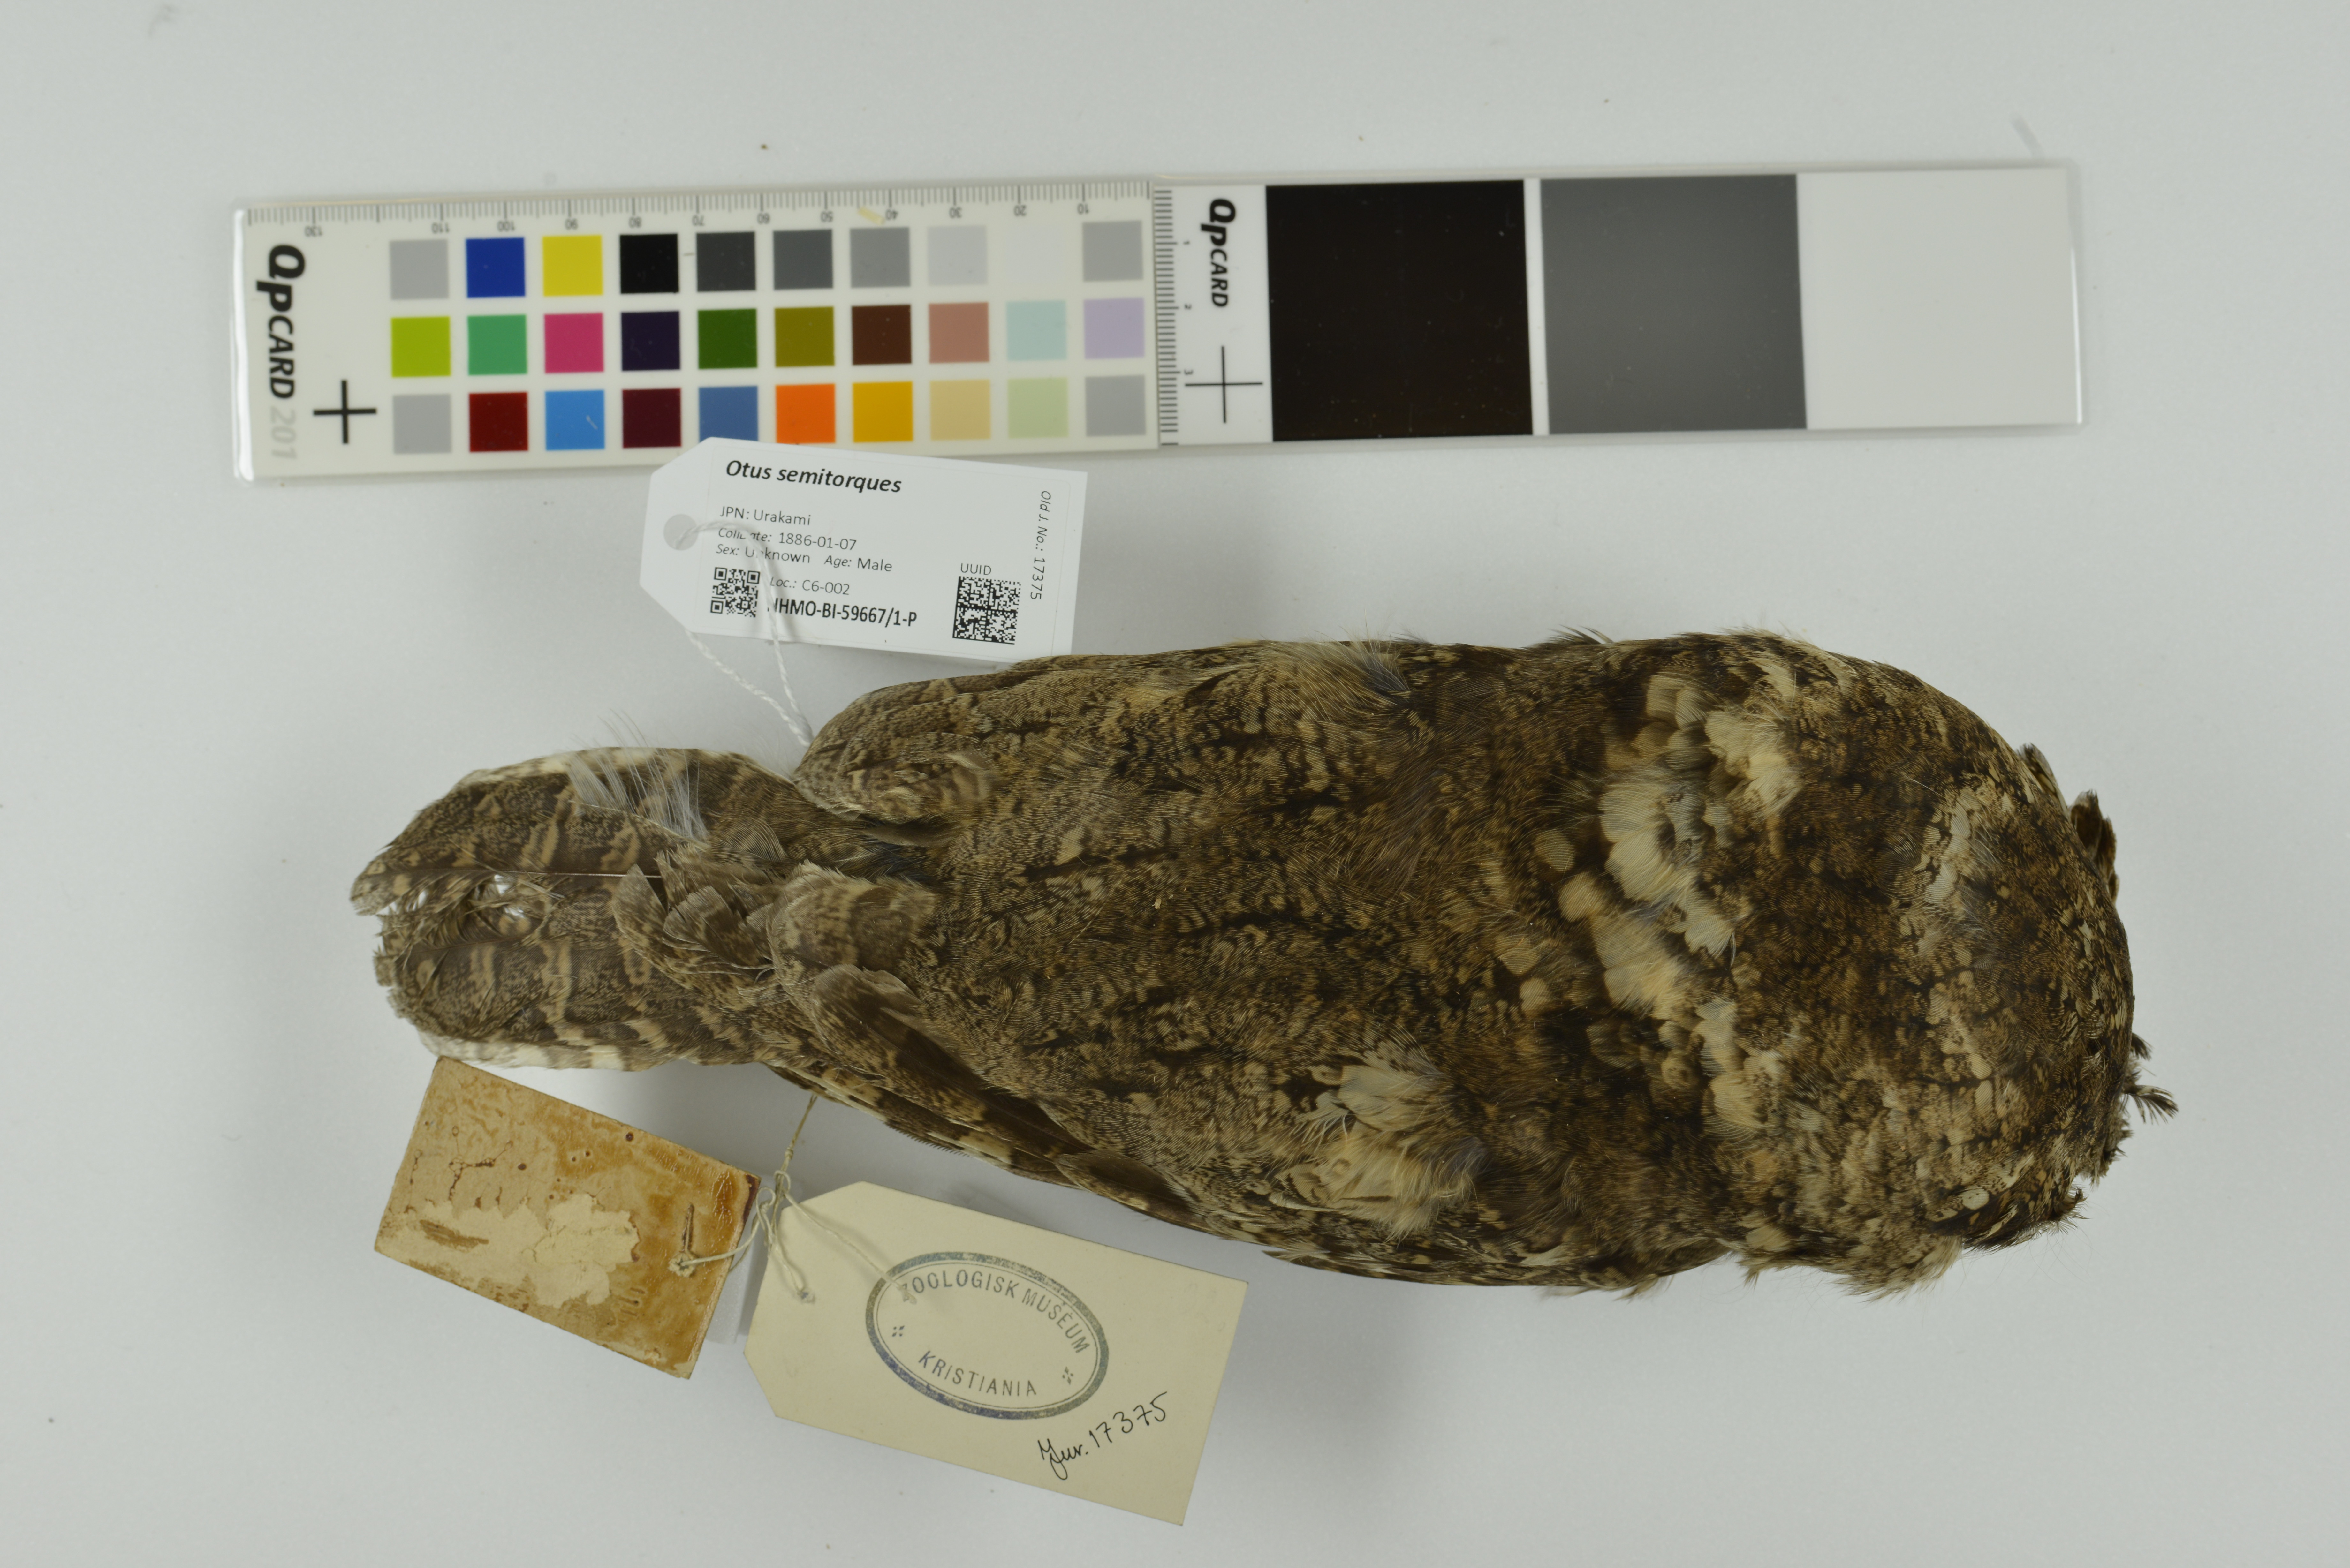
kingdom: Animalia
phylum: Chordata
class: Aves
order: Strigiformes
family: Strigidae
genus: Otus
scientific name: Otus semitorques
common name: Japanese scops owl
